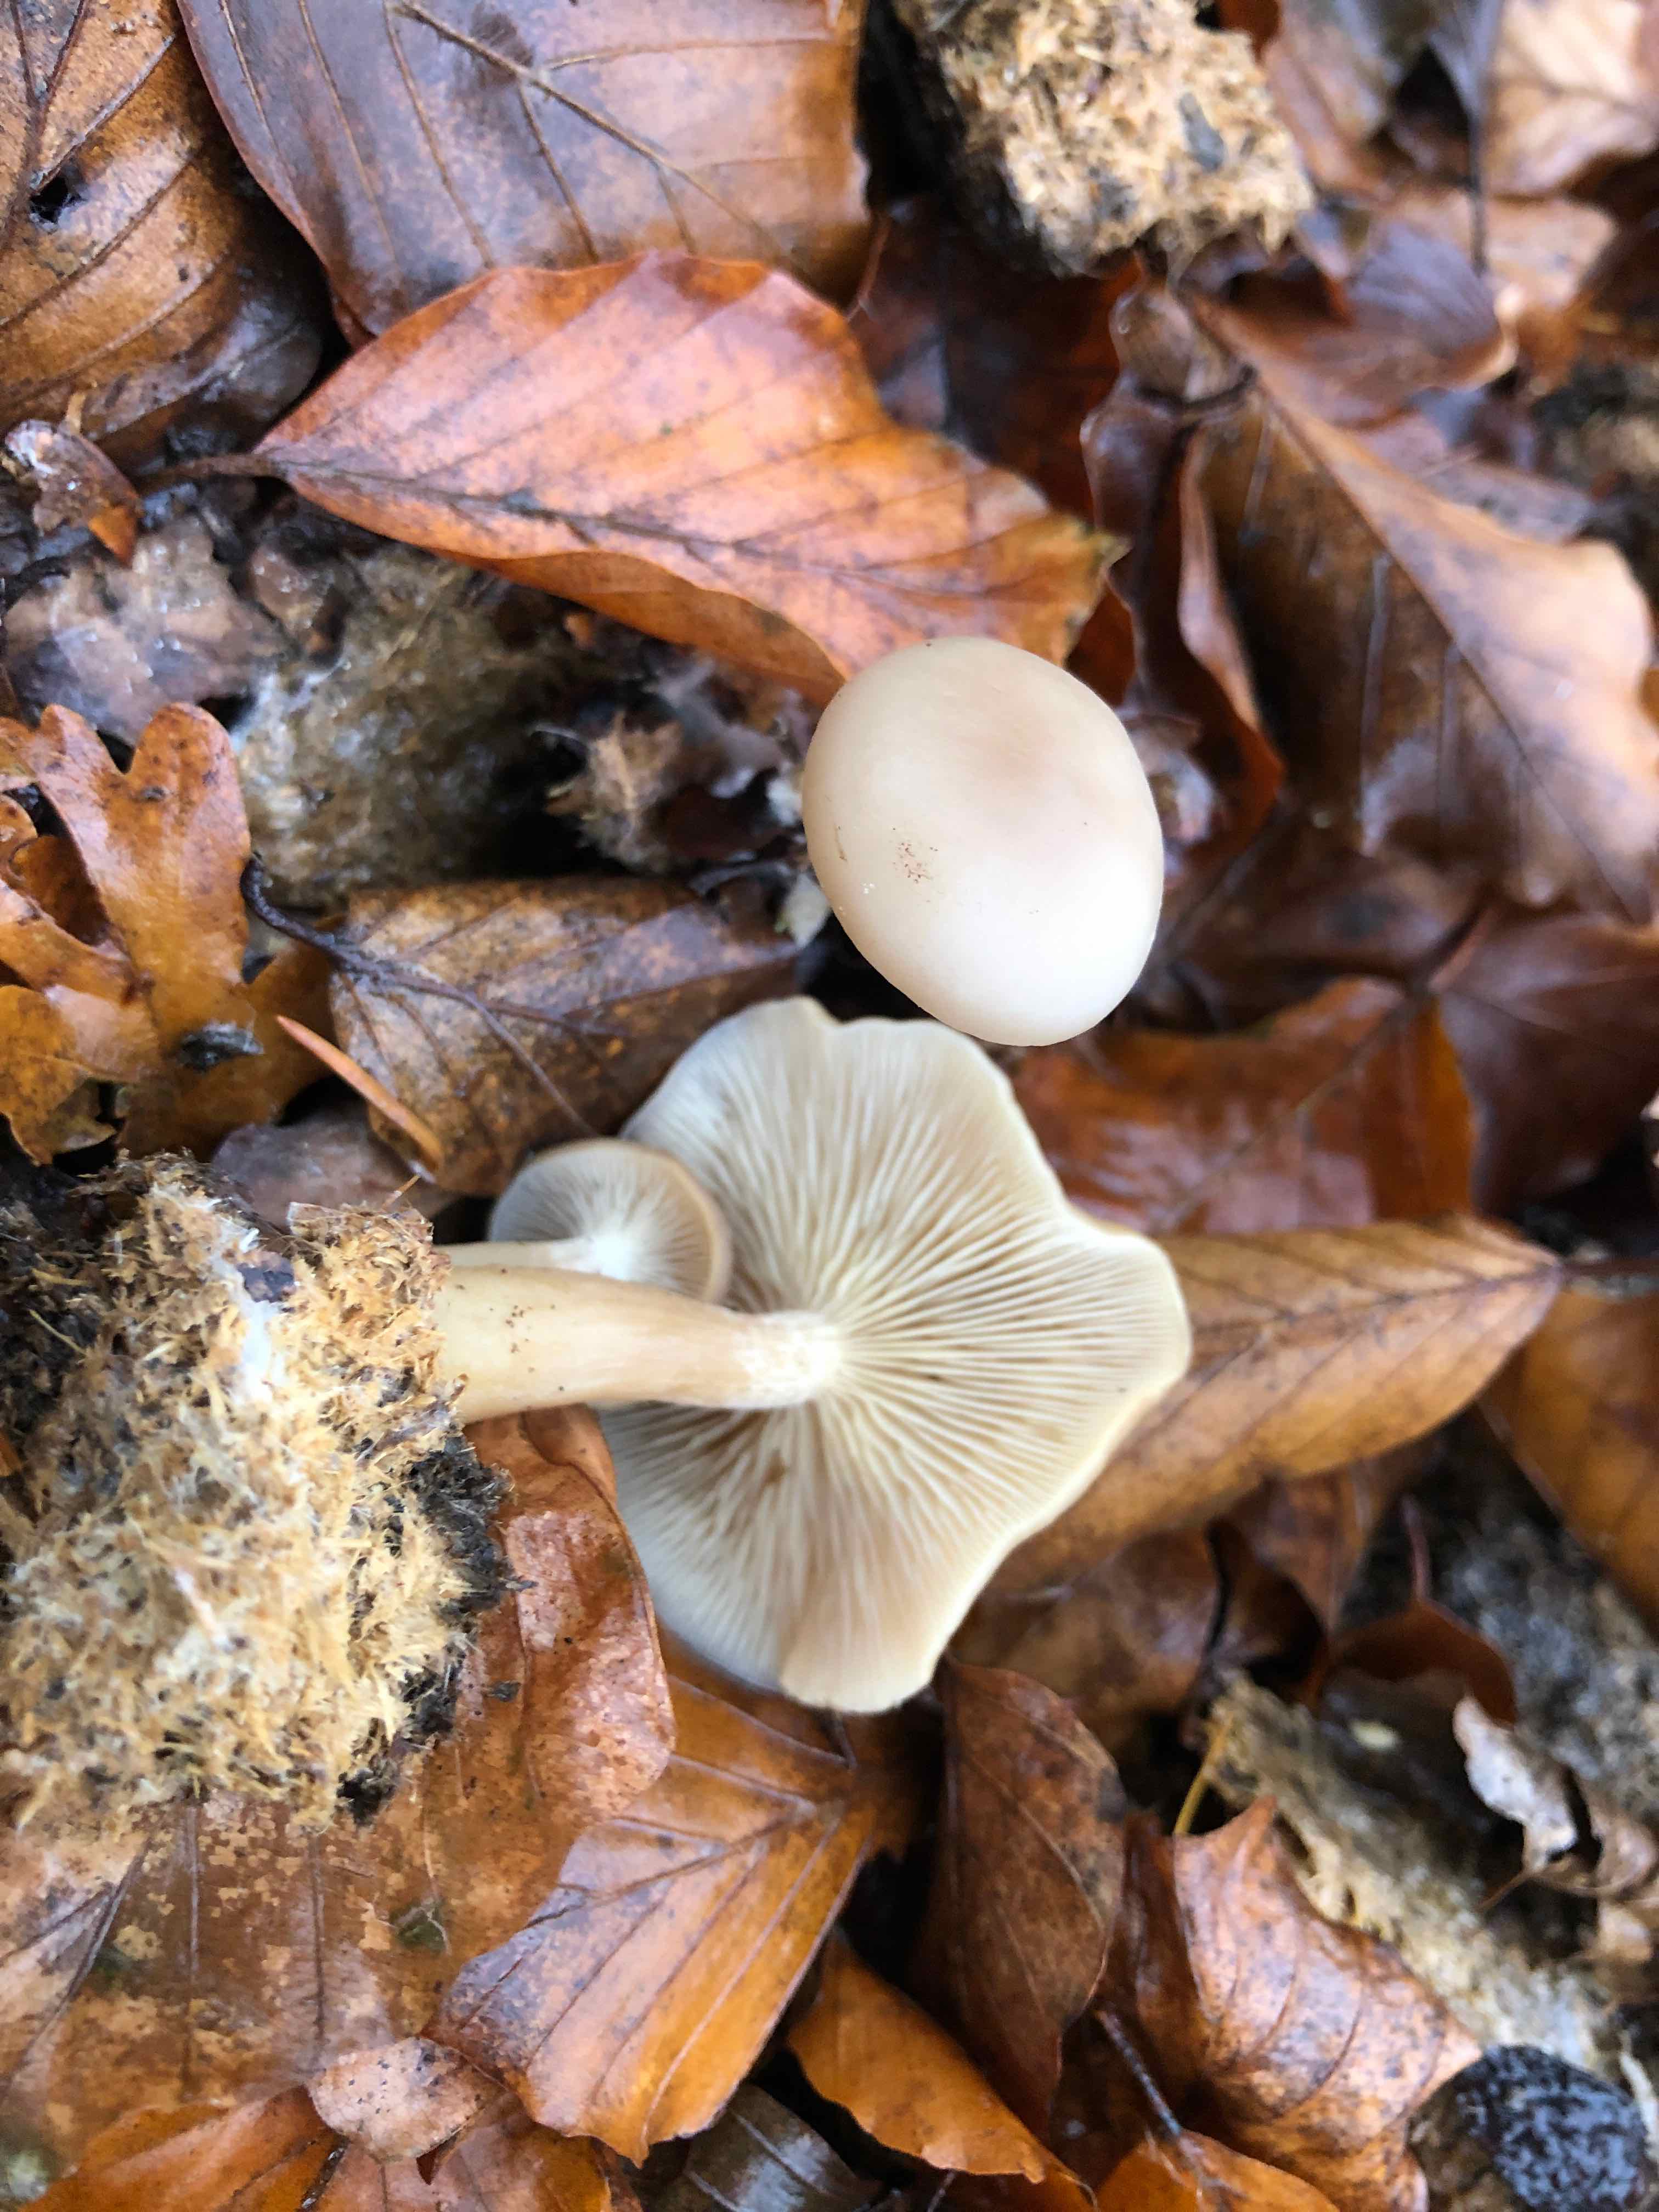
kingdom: Fungi
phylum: Basidiomycota
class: Agaricomycetes
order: Agaricales
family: Tricholomataceae
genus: Clitocybe
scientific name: Clitocybe amarescens
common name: gødnings-tragthat
